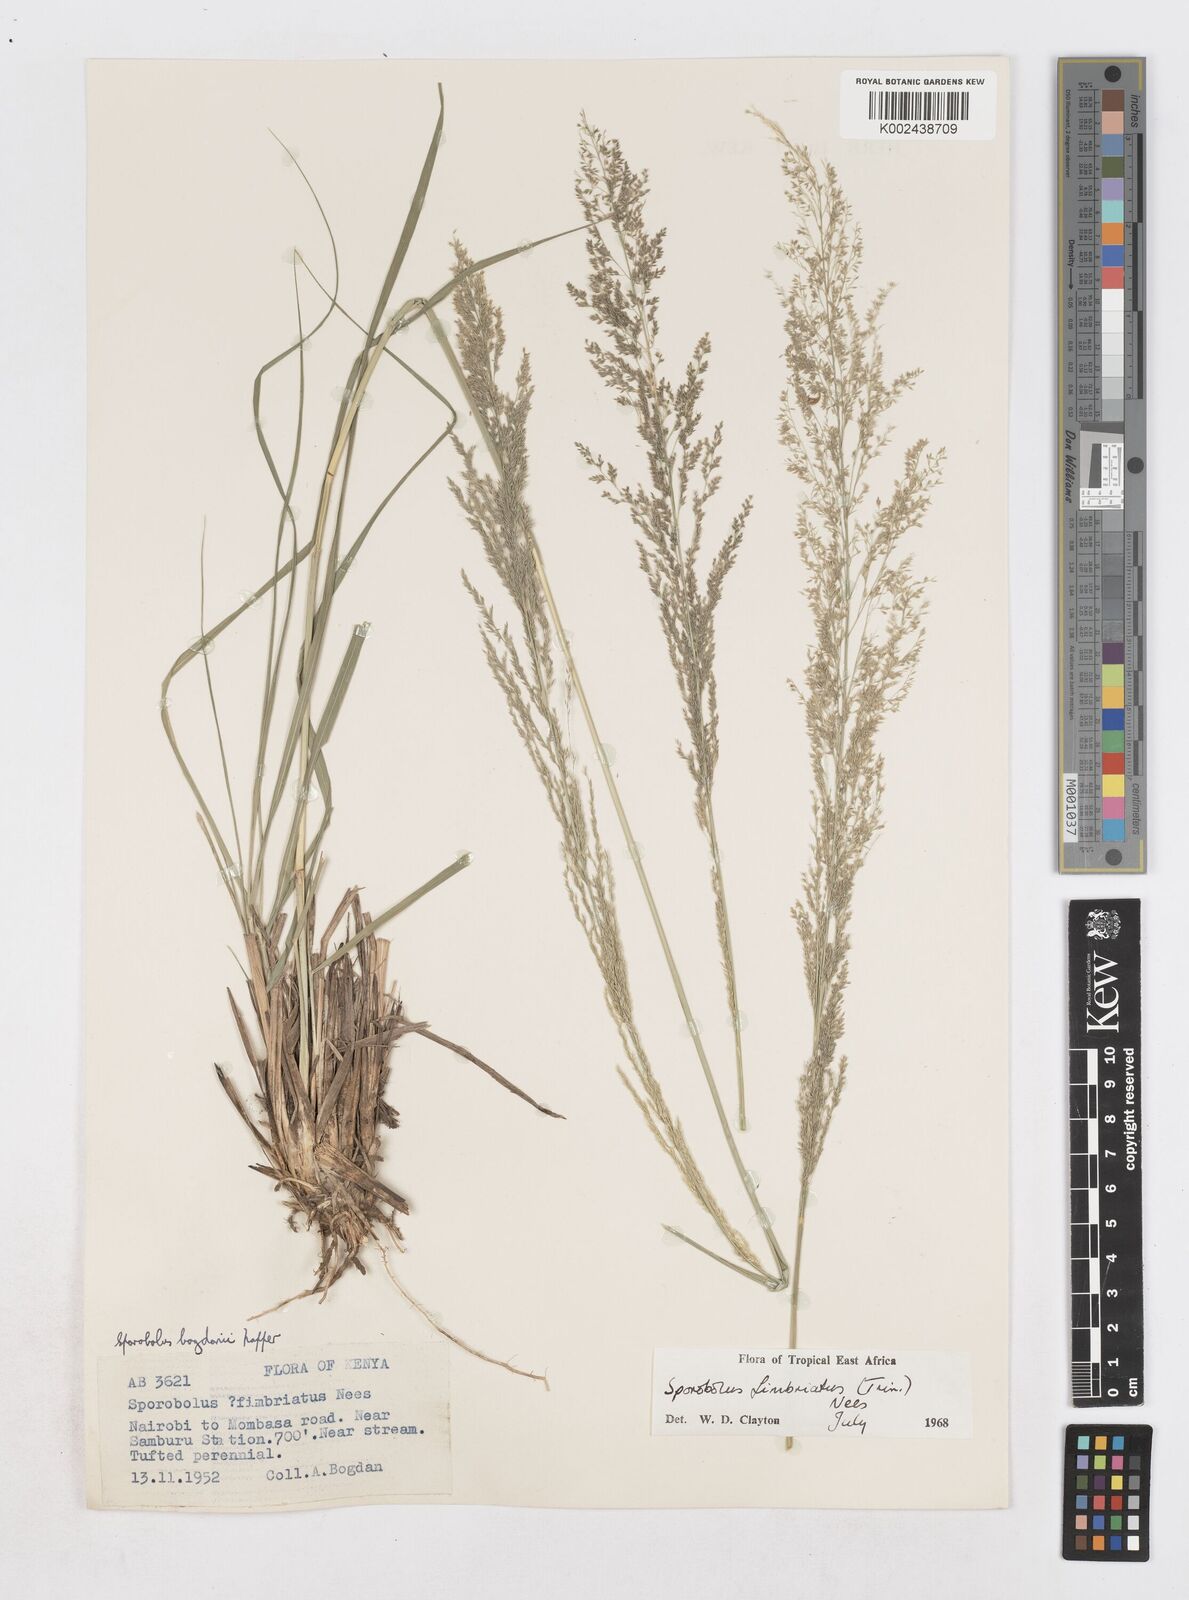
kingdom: Plantae
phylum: Tracheophyta
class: Liliopsida
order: Poales
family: Poaceae
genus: Sporobolus
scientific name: Sporobolus fimbriatus
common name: Fringed dropseed
